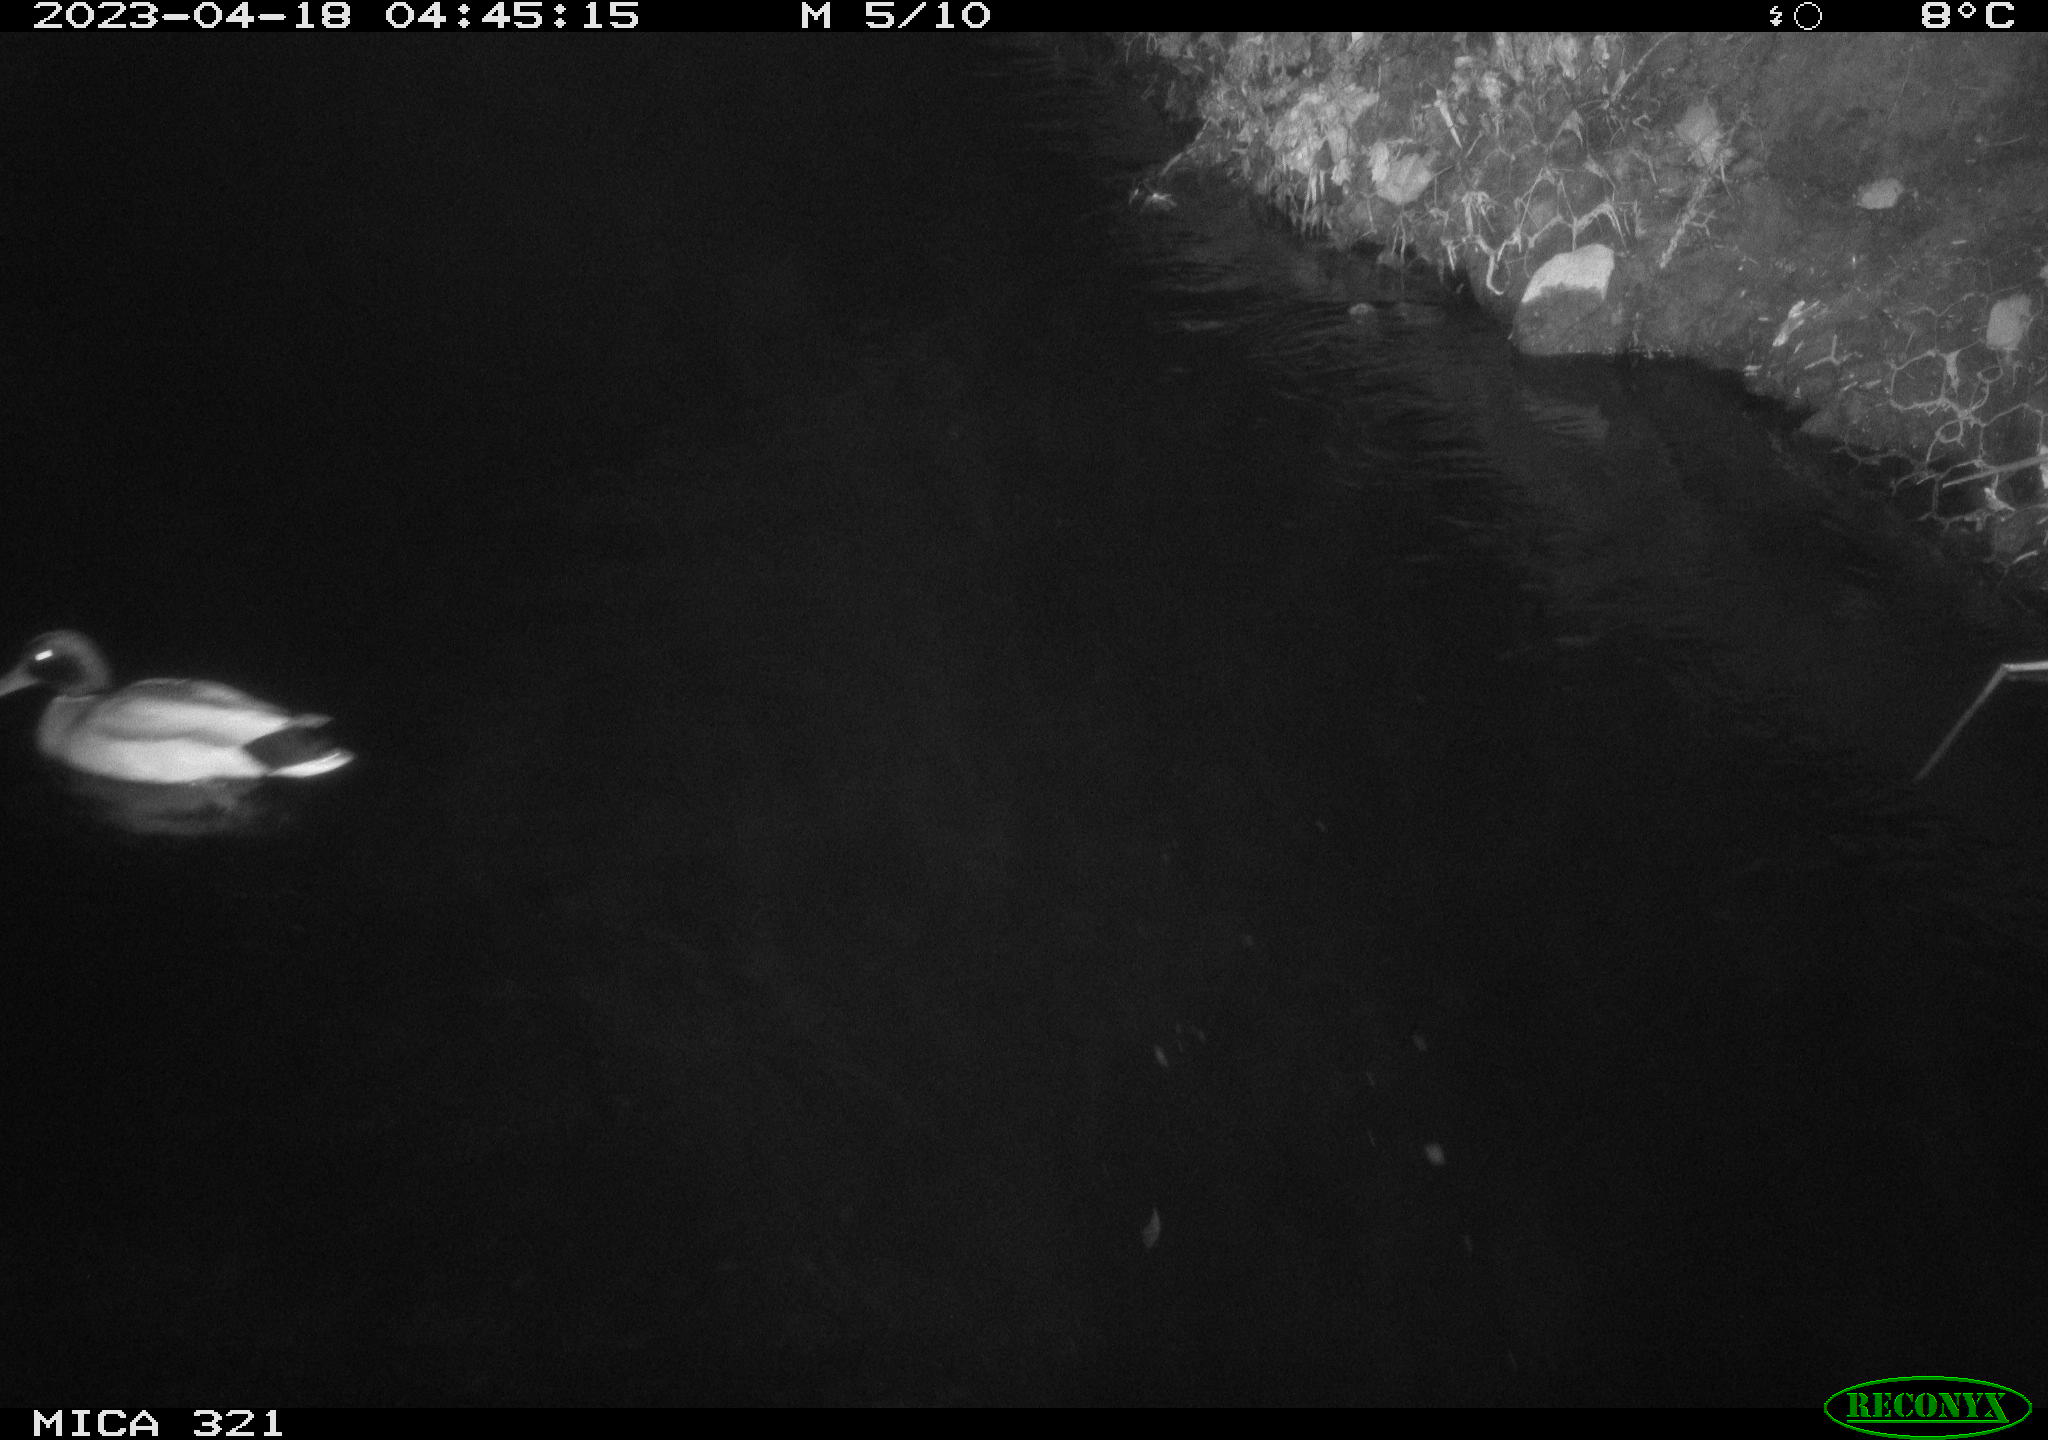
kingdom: Animalia
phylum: Chordata
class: Aves
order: Anseriformes
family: Anatidae
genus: Anas
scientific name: Anas
